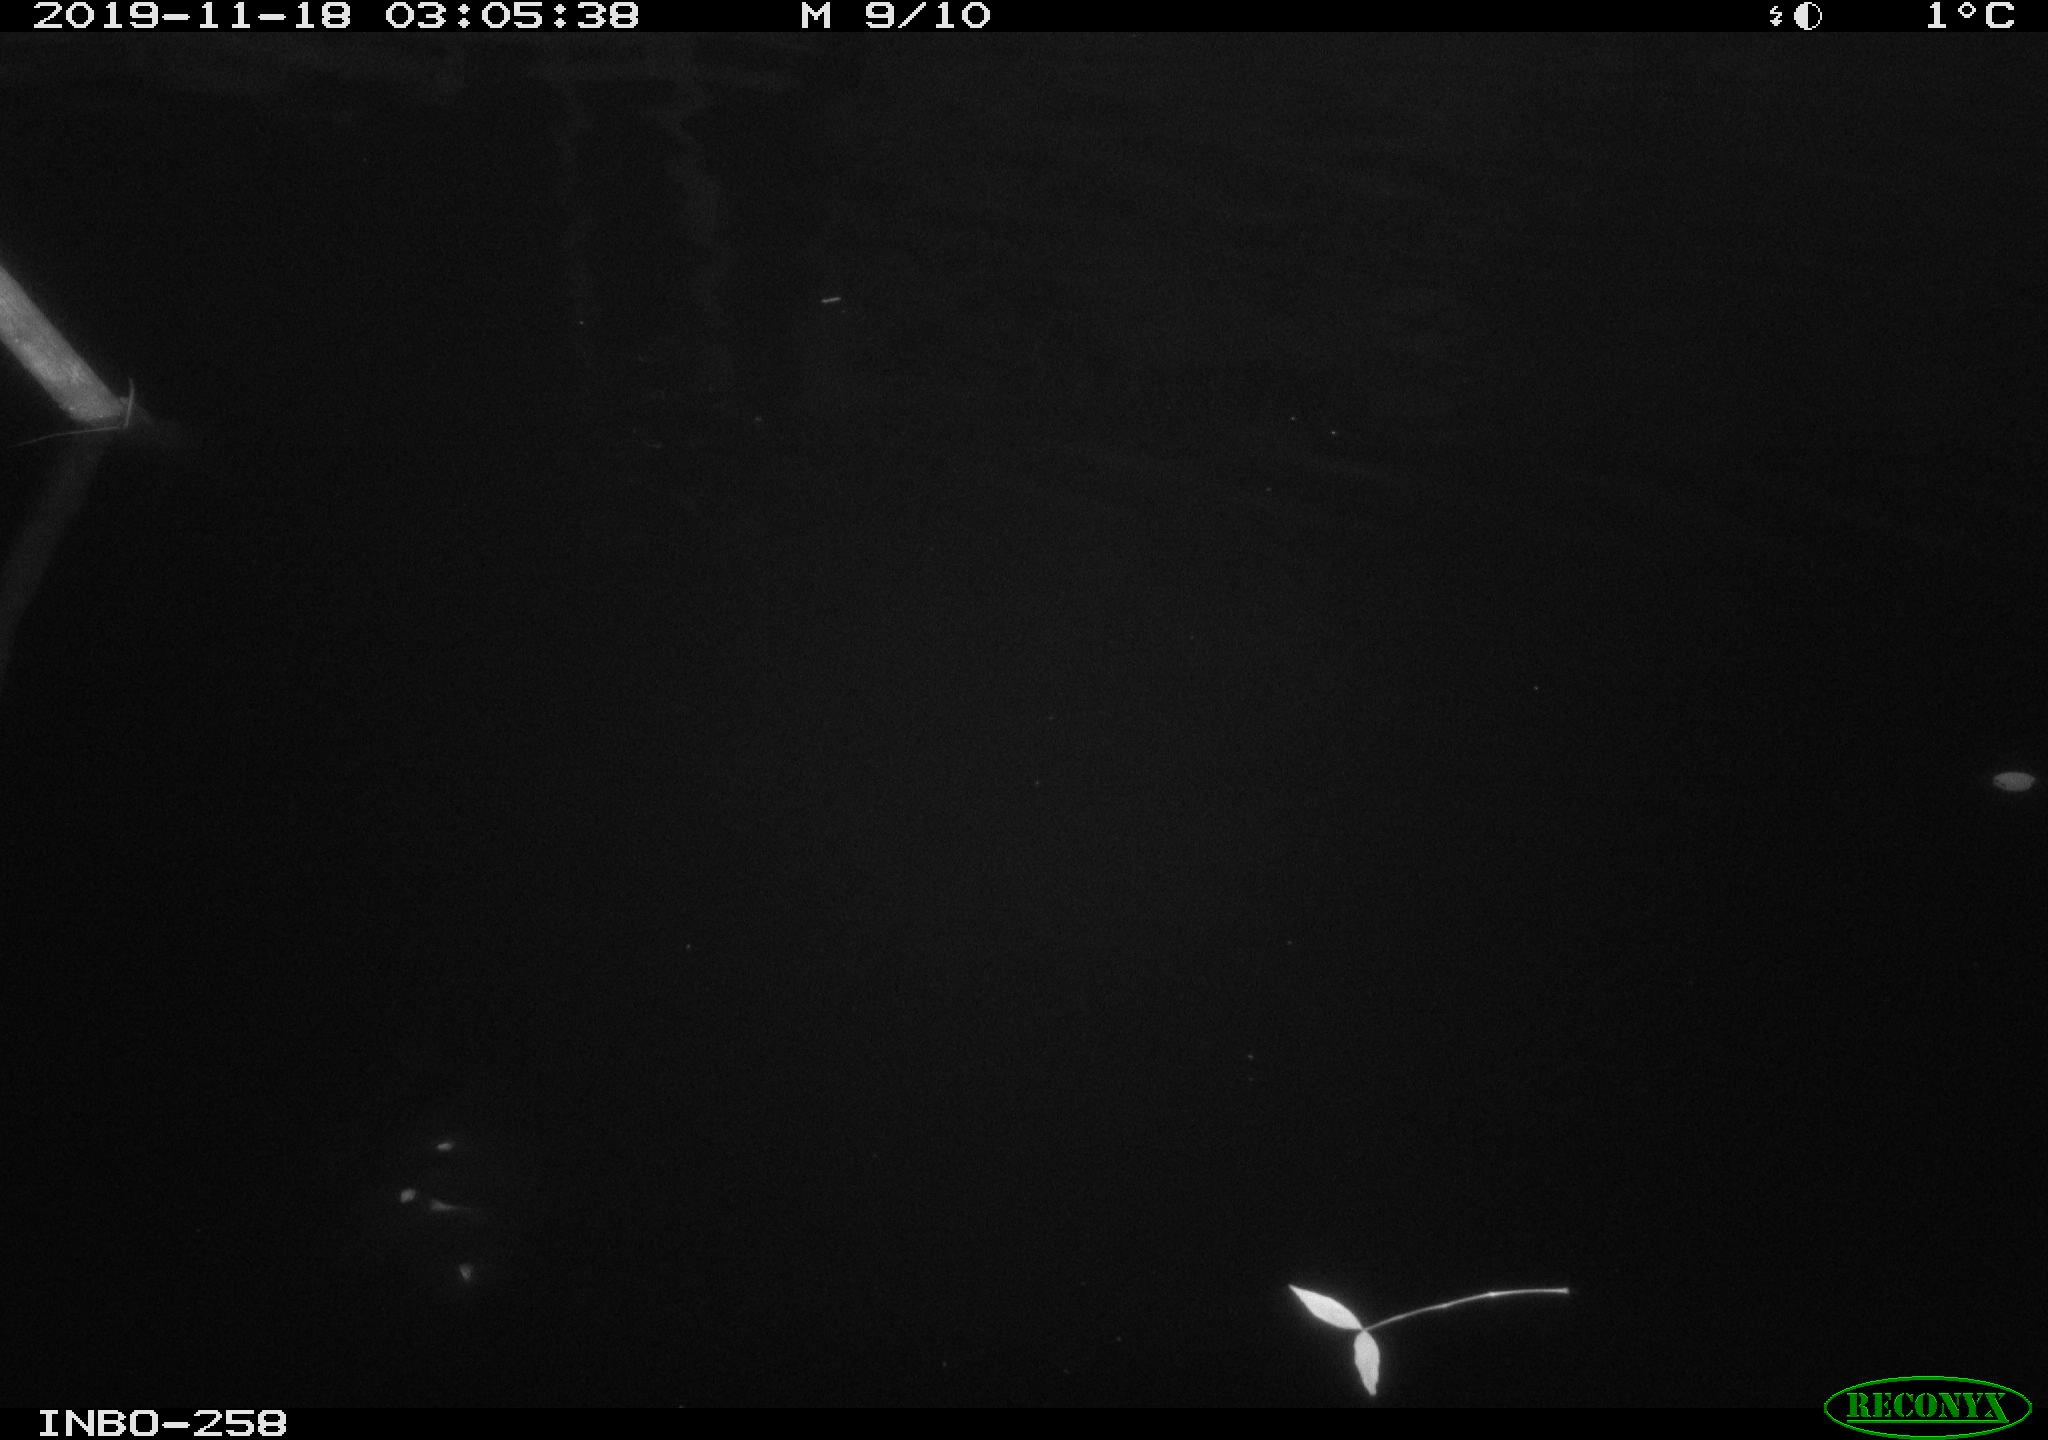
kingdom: Animalia
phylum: Chordata
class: Aves
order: Anseriformes
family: Anatidae
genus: Anas
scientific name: Anas platyrhynchos
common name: Mallard
